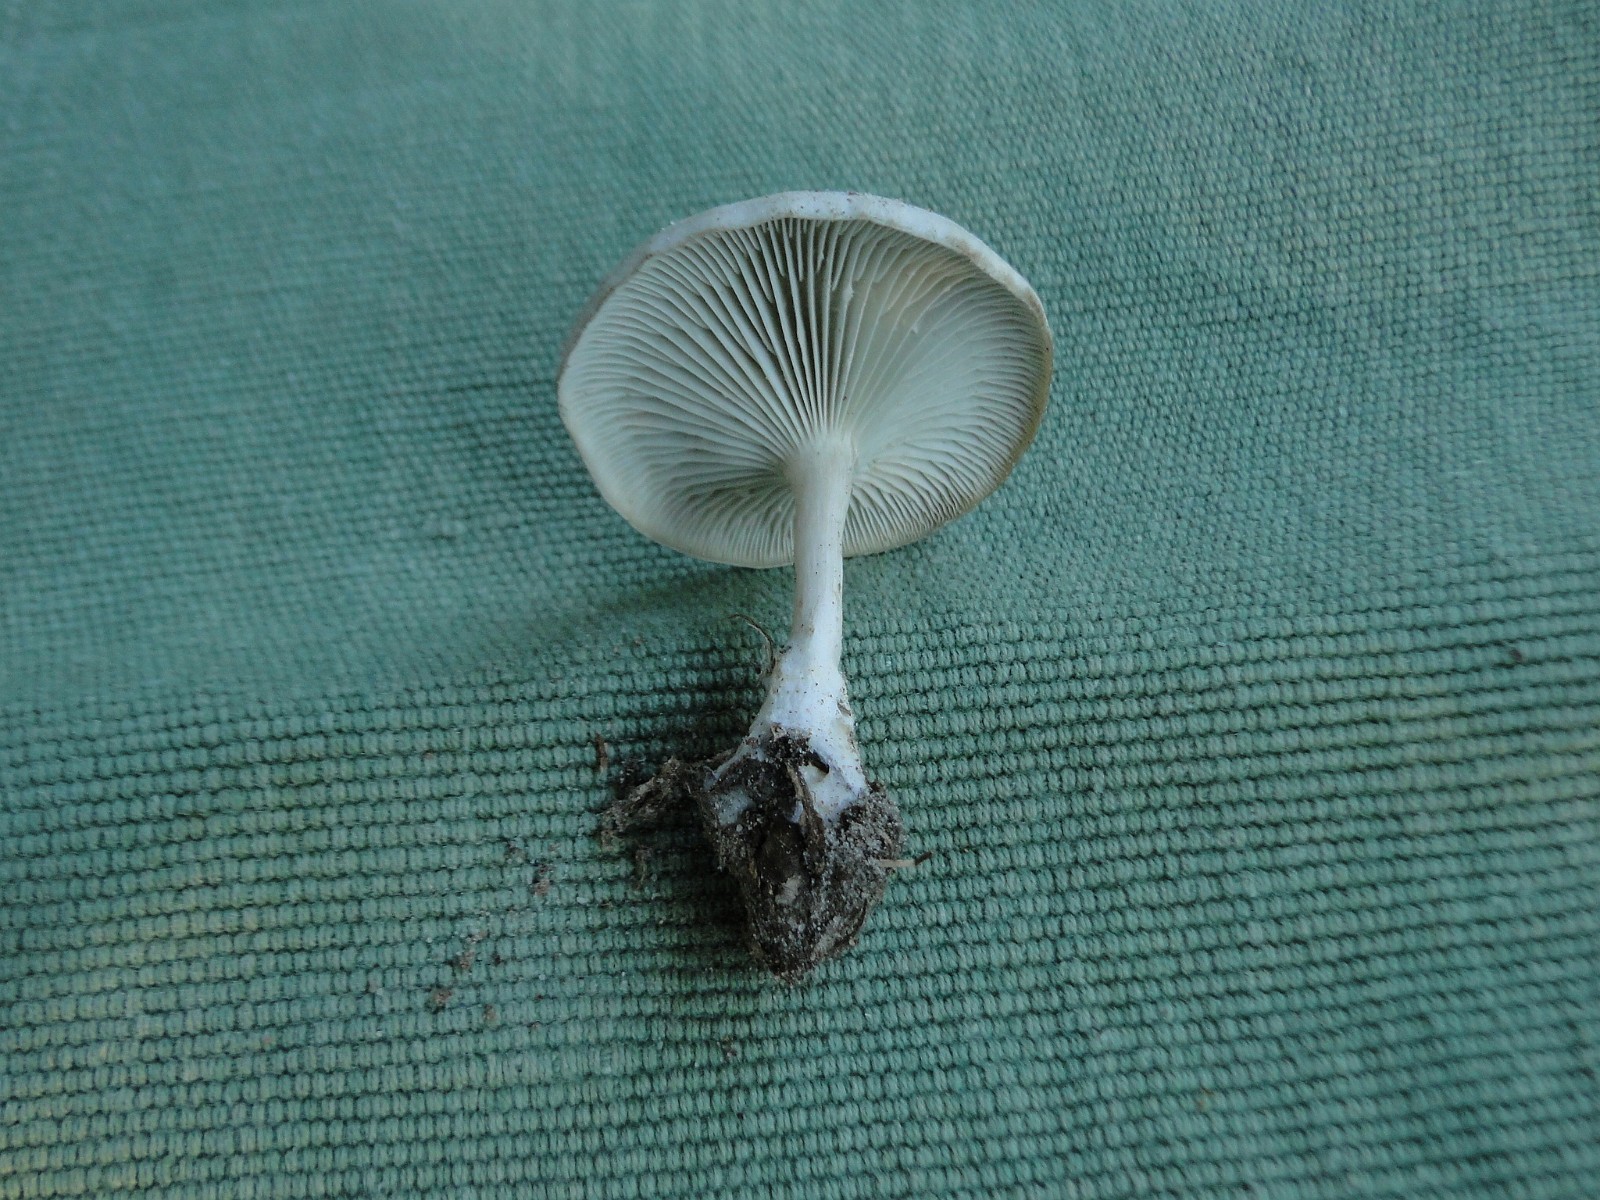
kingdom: Fungi
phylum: Basidiomycota
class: Agaricomycetes
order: Agaricales
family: Tricholomataceae
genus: Clitocybe
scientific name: Clitocybe odora
